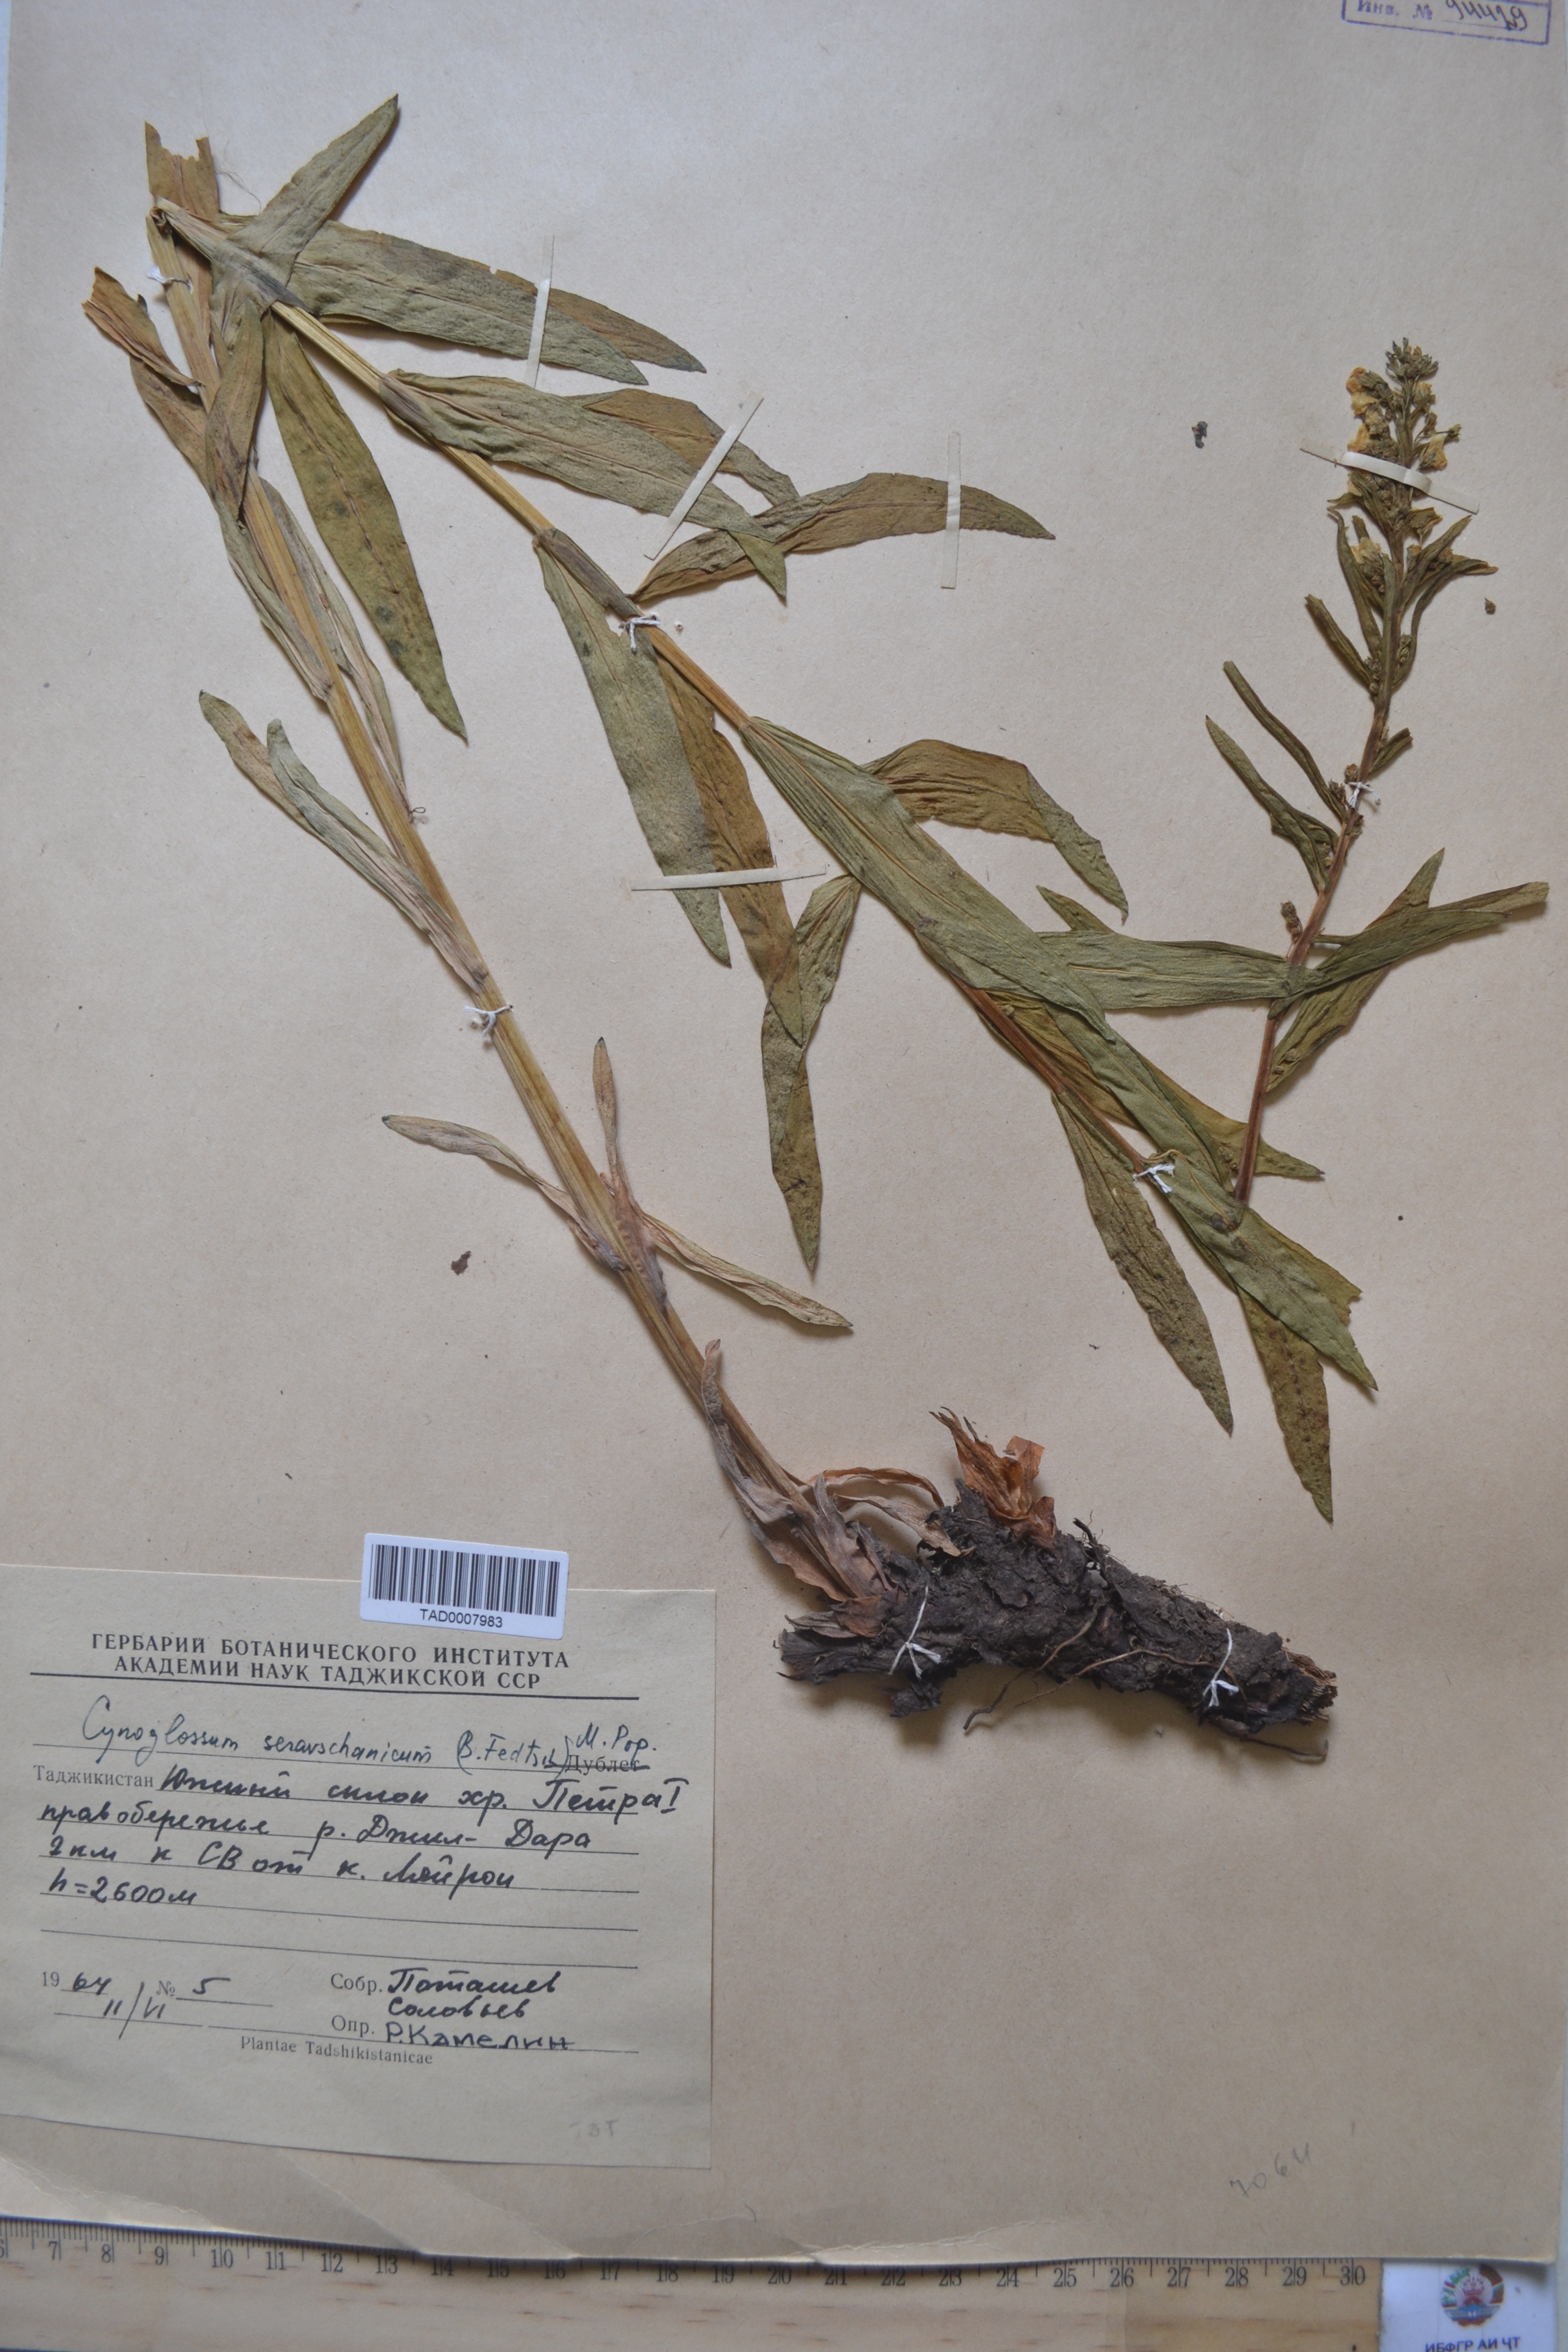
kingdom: Plantae
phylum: Tracheophyta
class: Magnoliopsida
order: Boraginales
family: Boraginaceae
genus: Cynoglossum
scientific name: Cynoglossum seravschanicum
